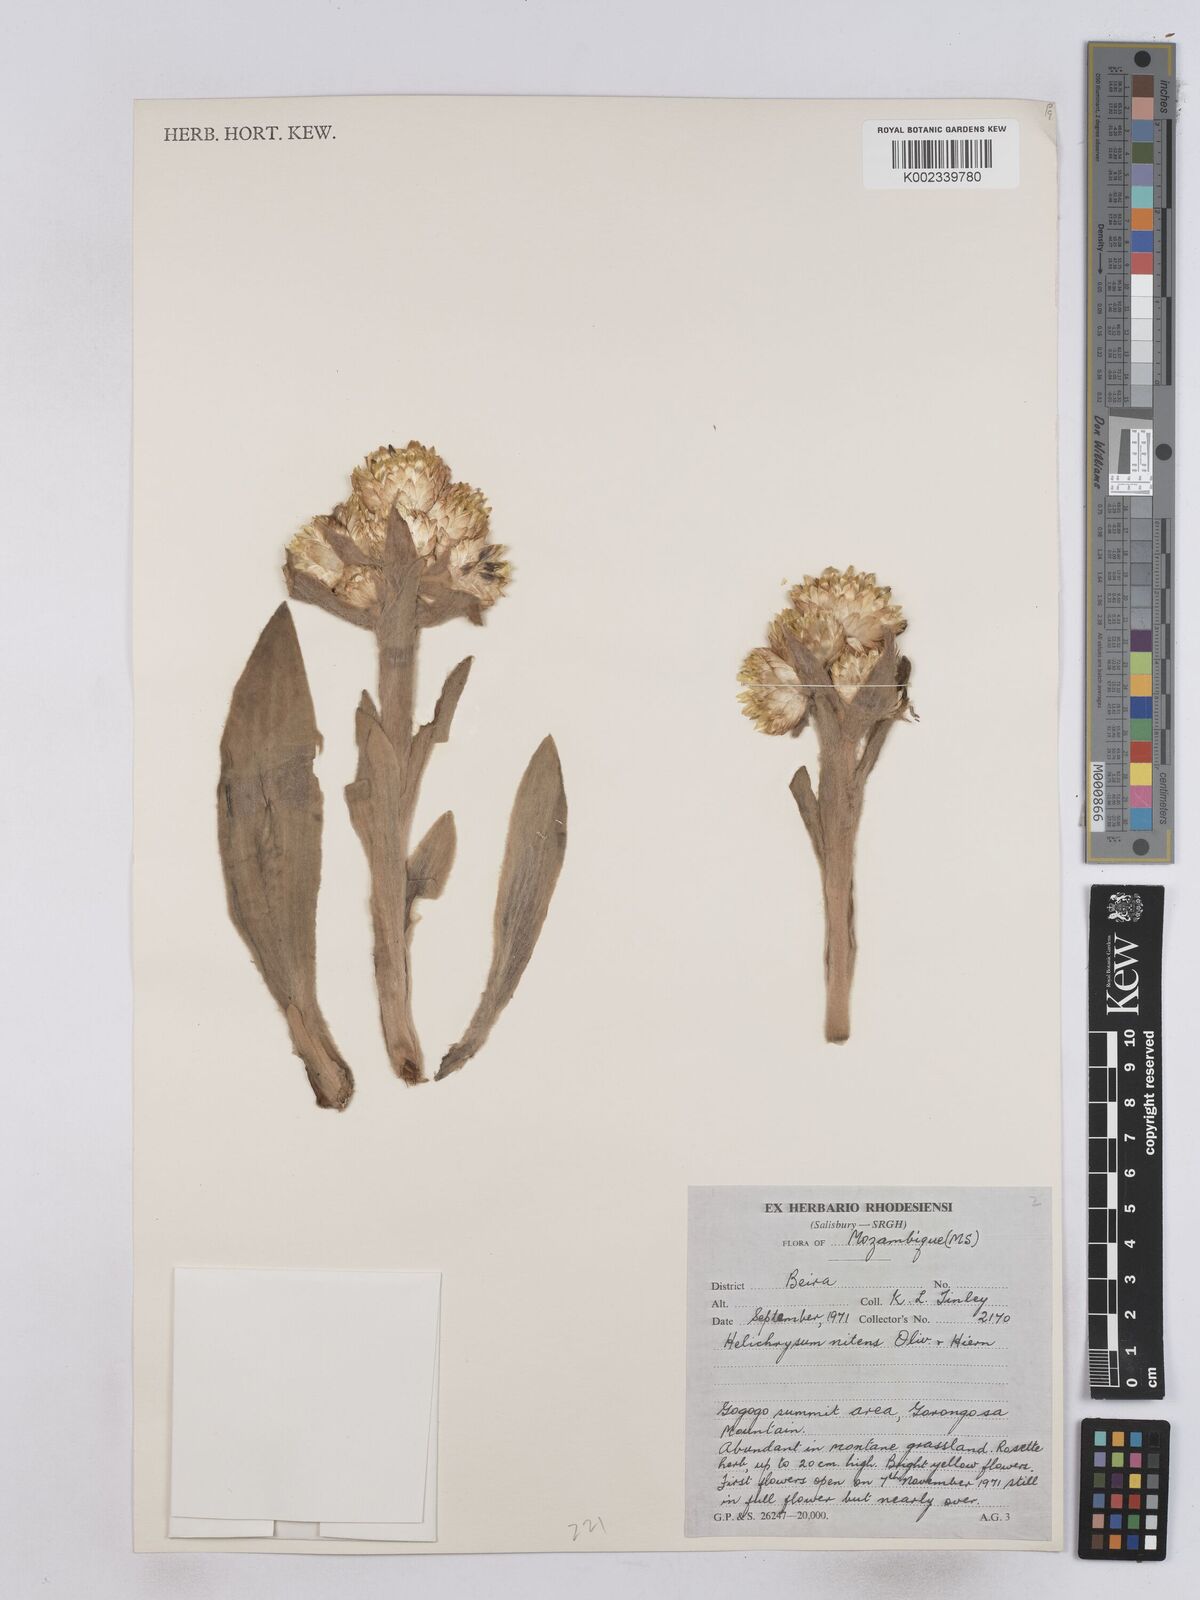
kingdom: Plantae
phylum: Tracheophyta
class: Magnoliopsida
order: Asterales
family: Asteraceae
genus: Helichrysum
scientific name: Helichrysum nitens
